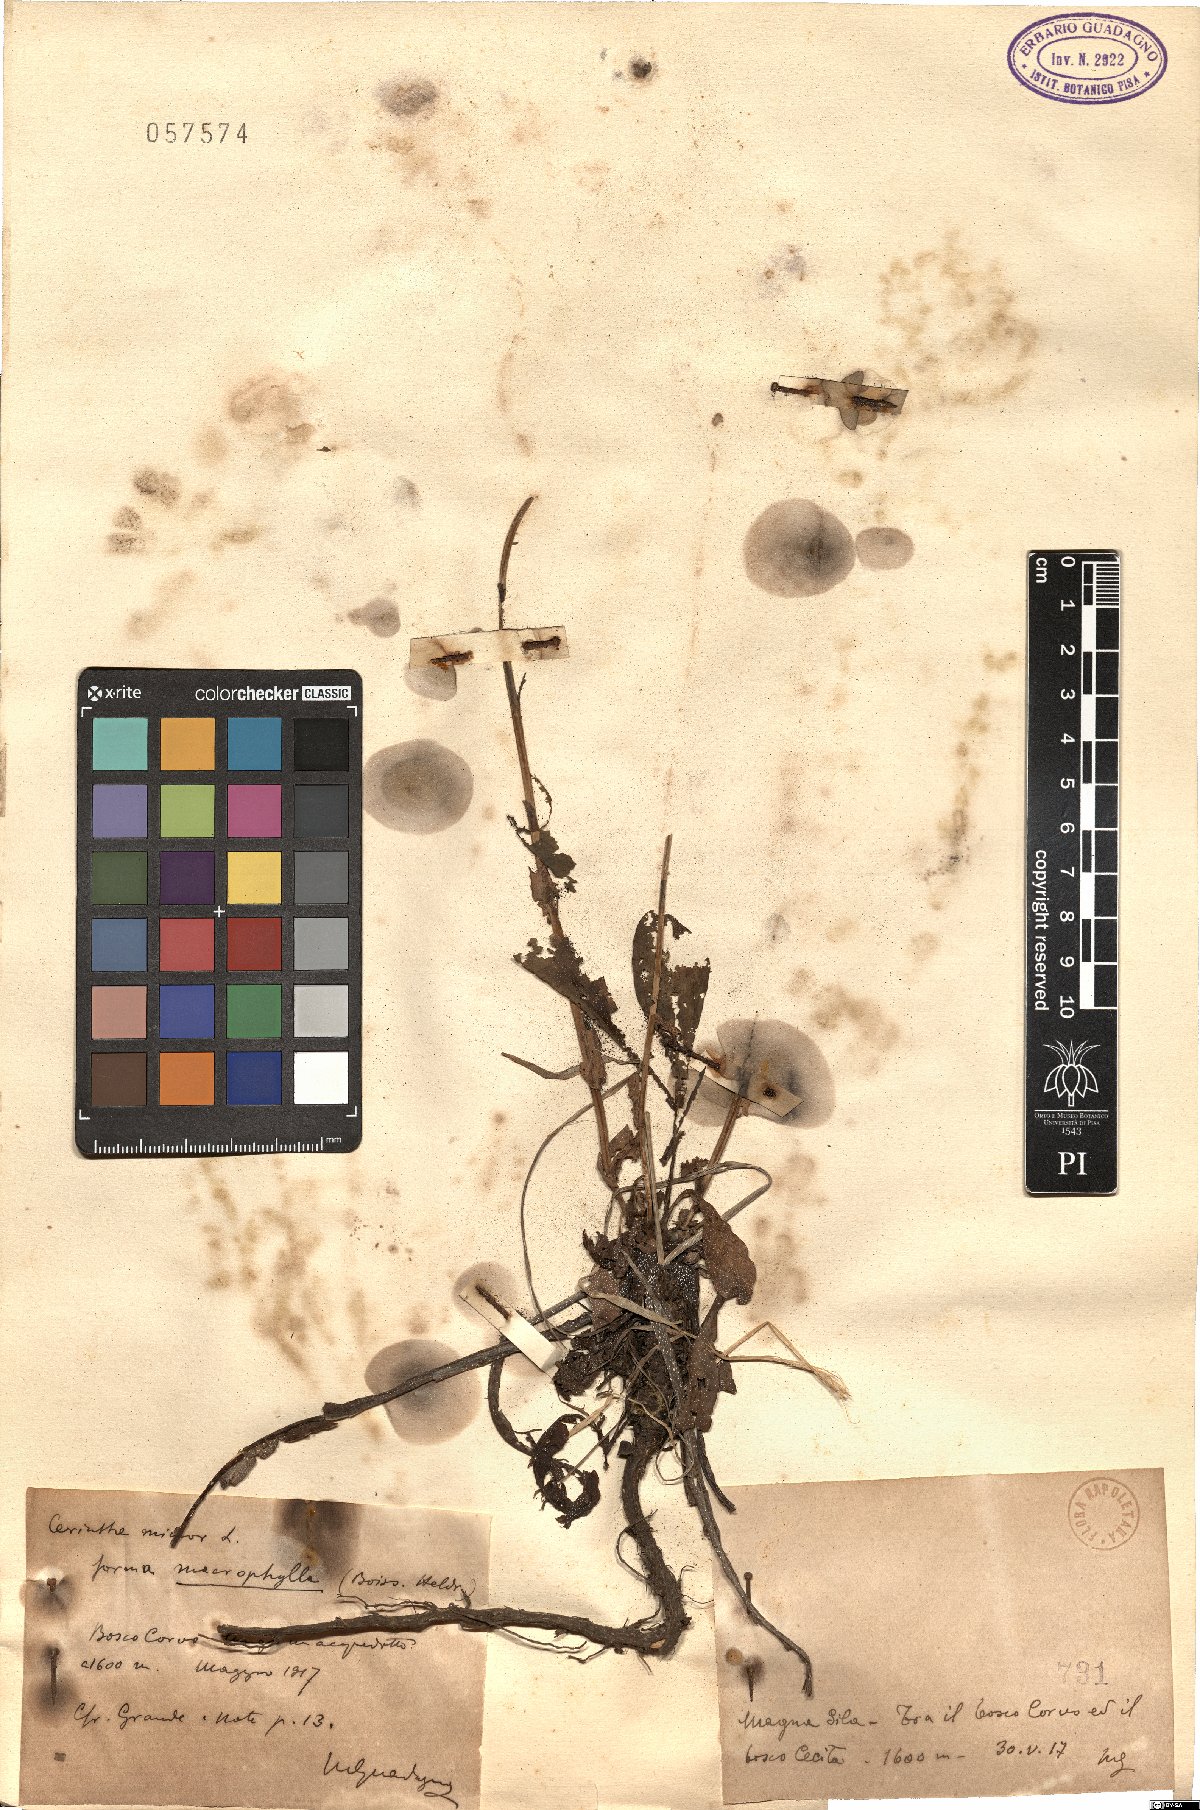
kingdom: Plantae
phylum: Tracheophyta
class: Magnoliopsida
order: Boraginales
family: Boraginaceae
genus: Cerinthe
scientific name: Cerinthe minor
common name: Lesser honeywort
